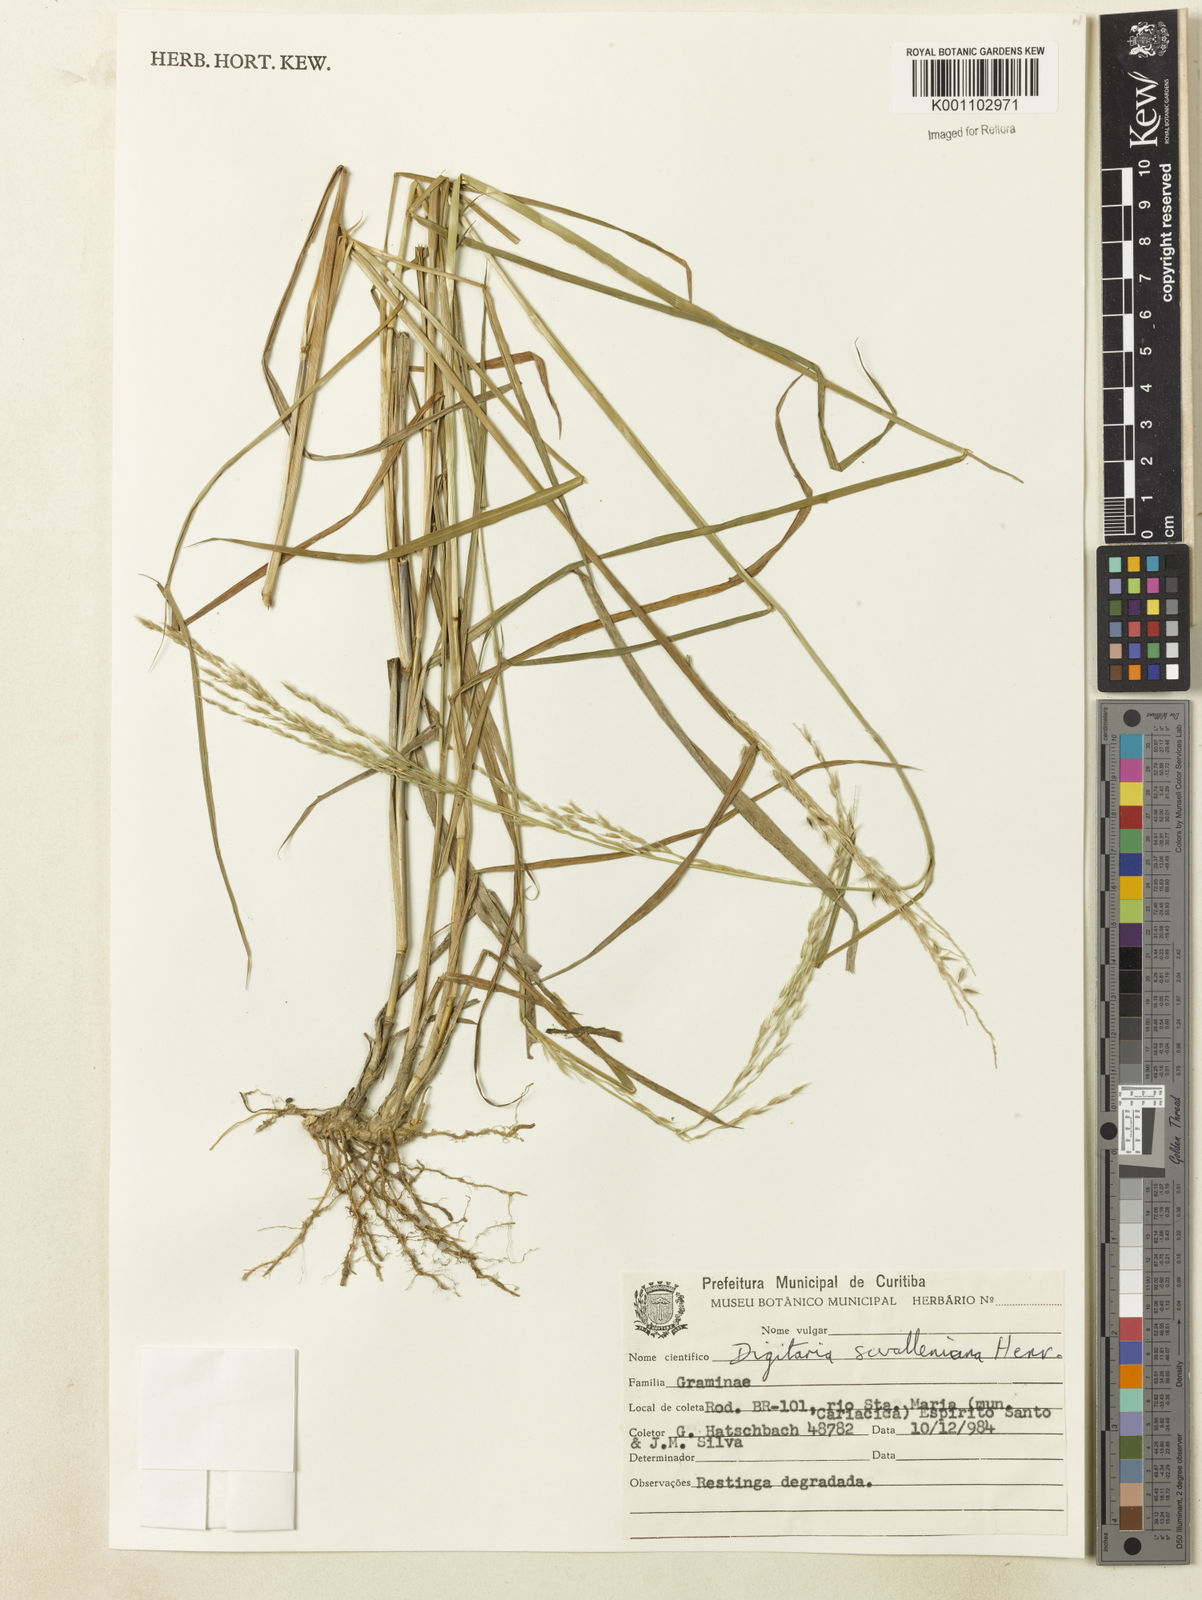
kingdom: Plantae
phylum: Tracheophyta
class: Liliopsida
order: Poales
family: Poaceae
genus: Digitaria
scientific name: Digitaria
